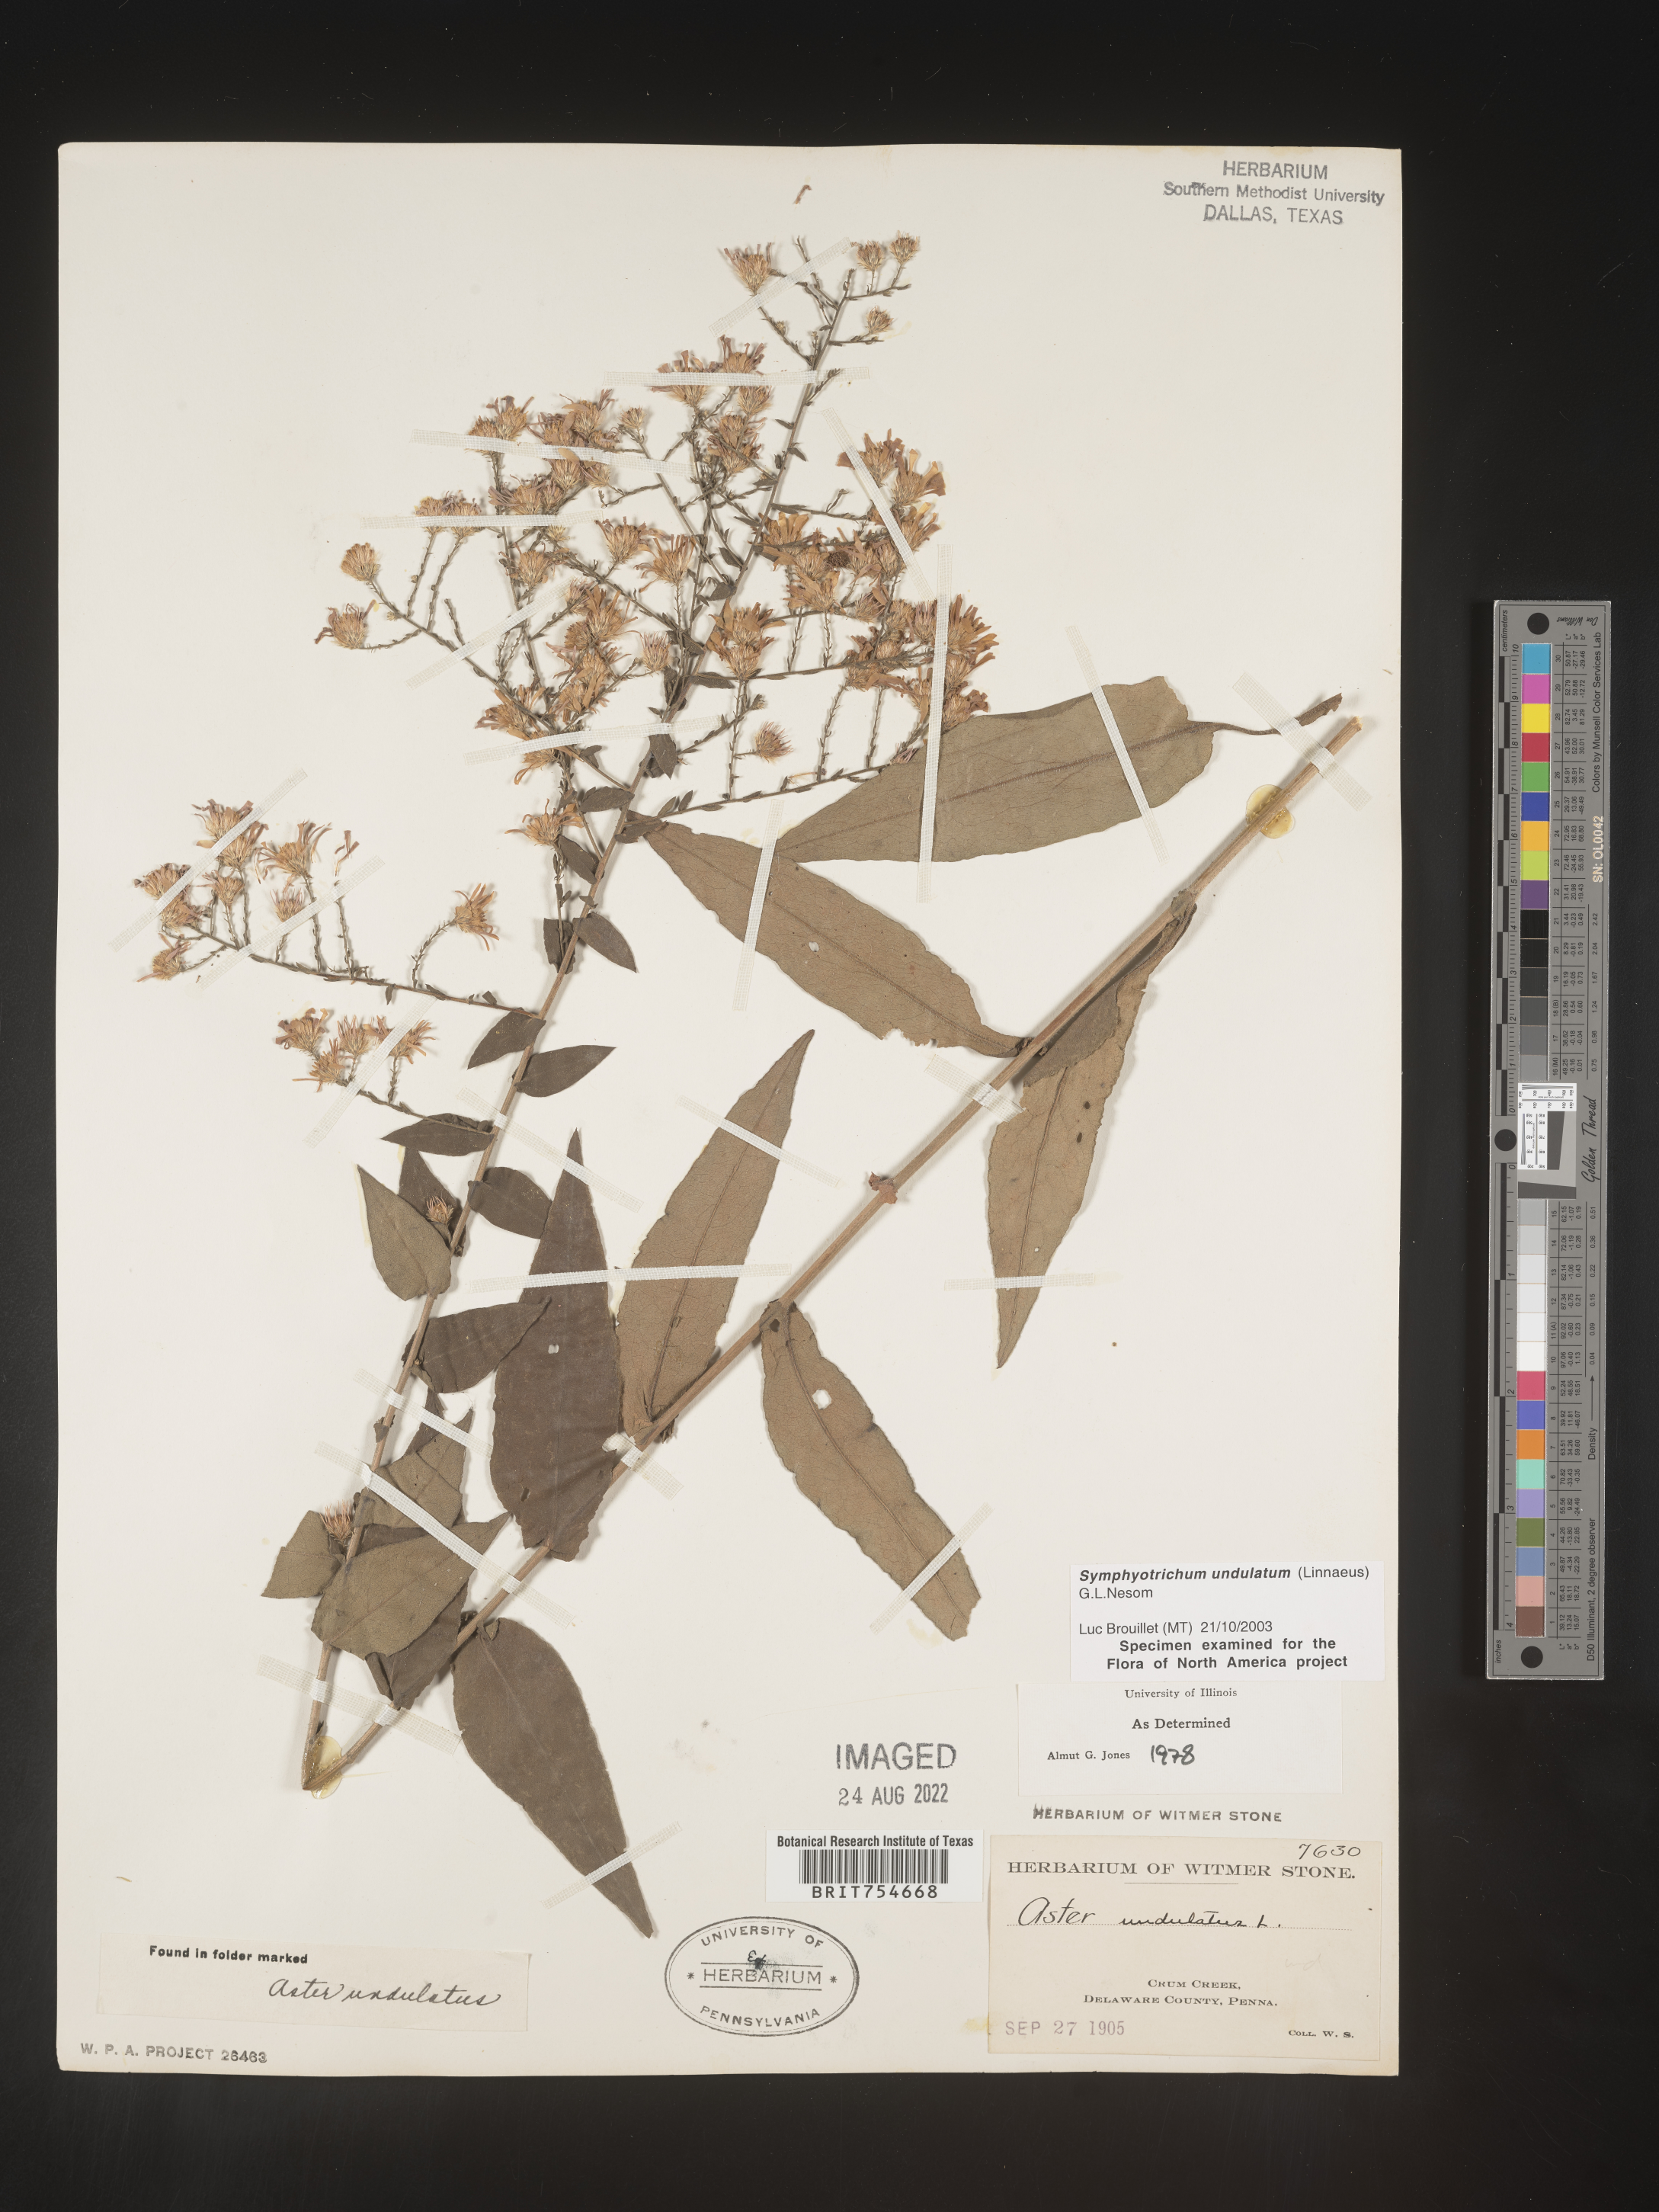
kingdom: Plantae
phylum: Tracheophyta
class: Magnoliopsida
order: Asterales
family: Asteraceae
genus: Symphyotrichum
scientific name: Symphyotrichum undulatum
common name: Clasping heart-leaf aster
